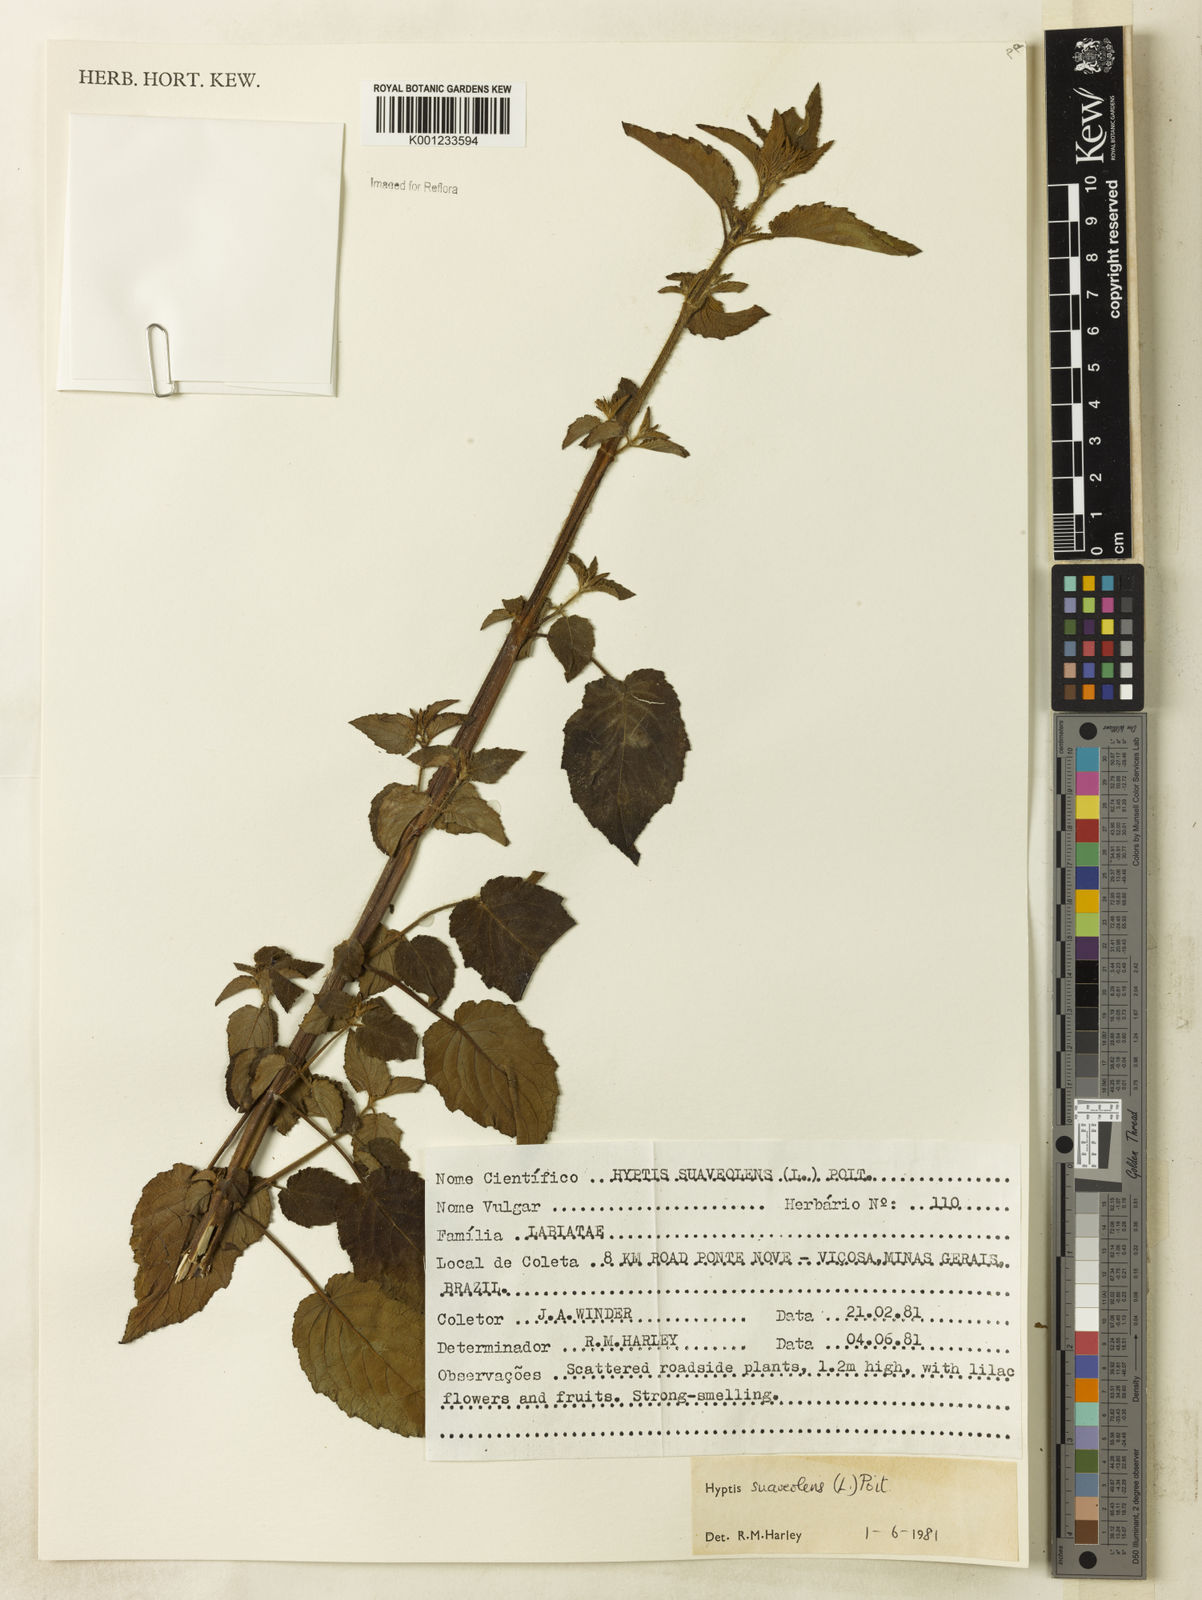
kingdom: Plantae
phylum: Tracheophyta
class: Magnoliopsida
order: Lamiales
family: Lamiaceae
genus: Mesosphaerum
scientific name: Mesosphaerum suaveolens
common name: Pignut
